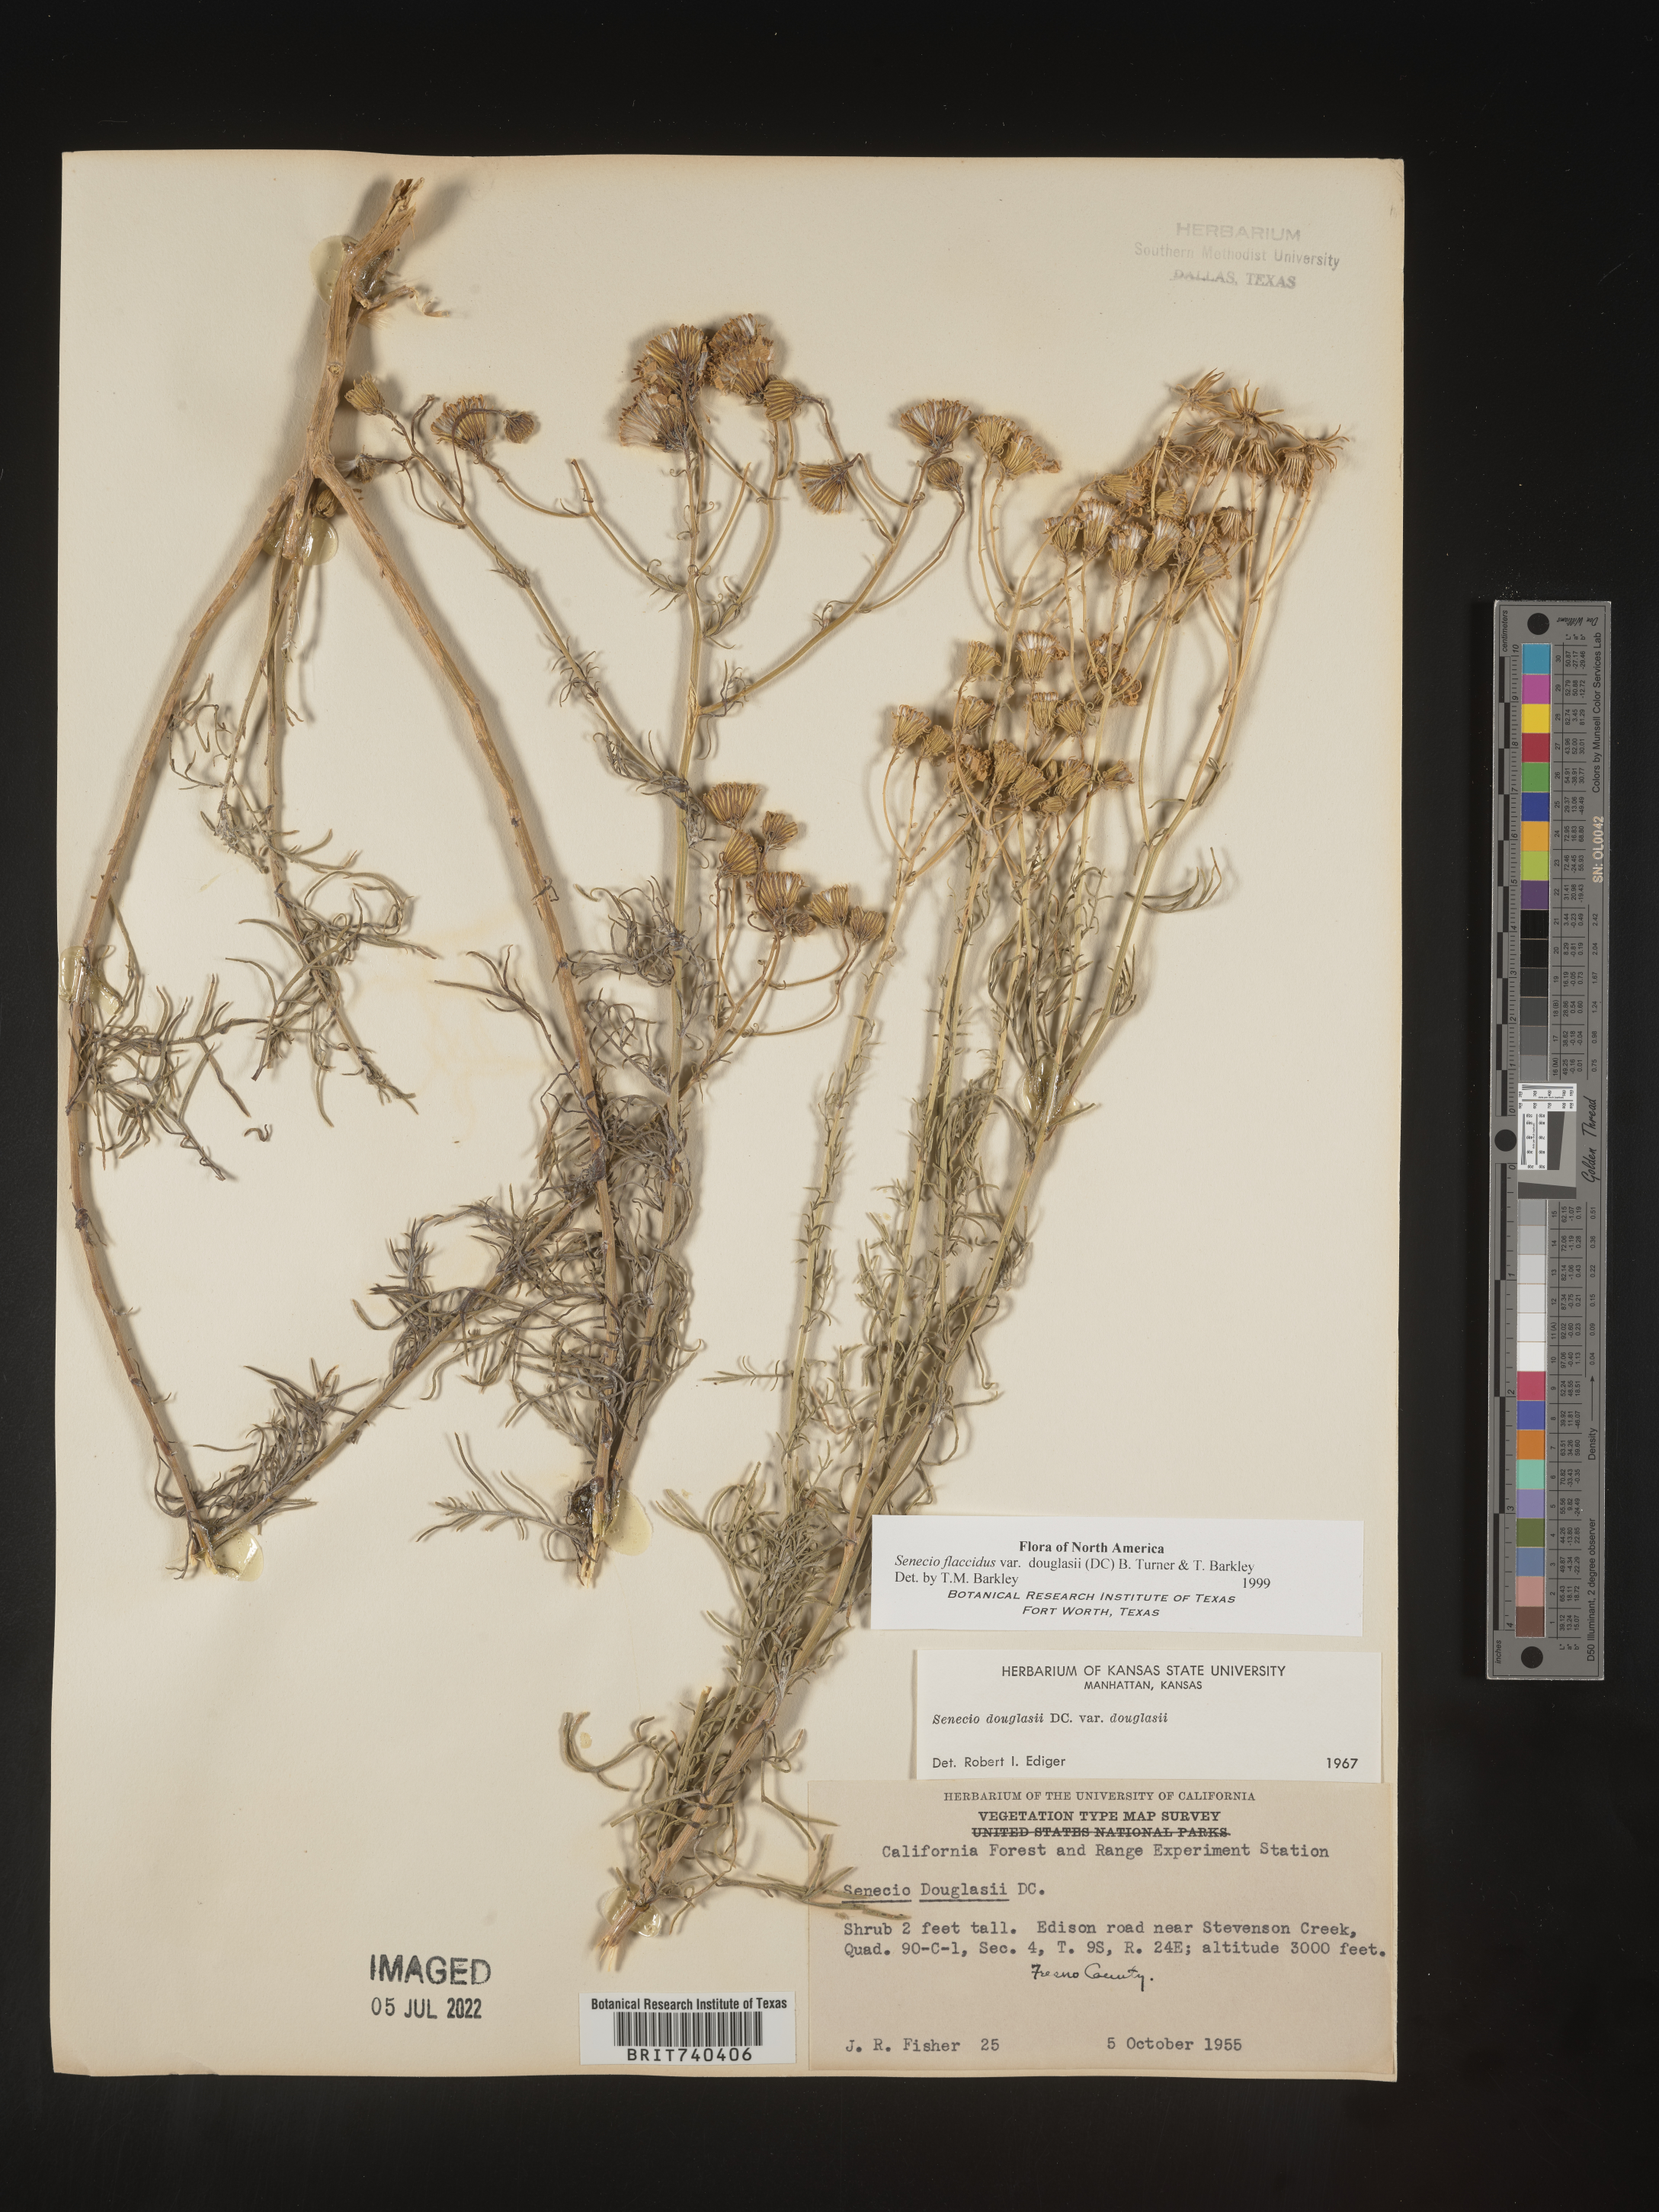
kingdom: Plantae
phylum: Tracheophyta
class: Magnoliopsida
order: Asterales
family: Asteraceae
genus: Senecio
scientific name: Senecio flaccidus
